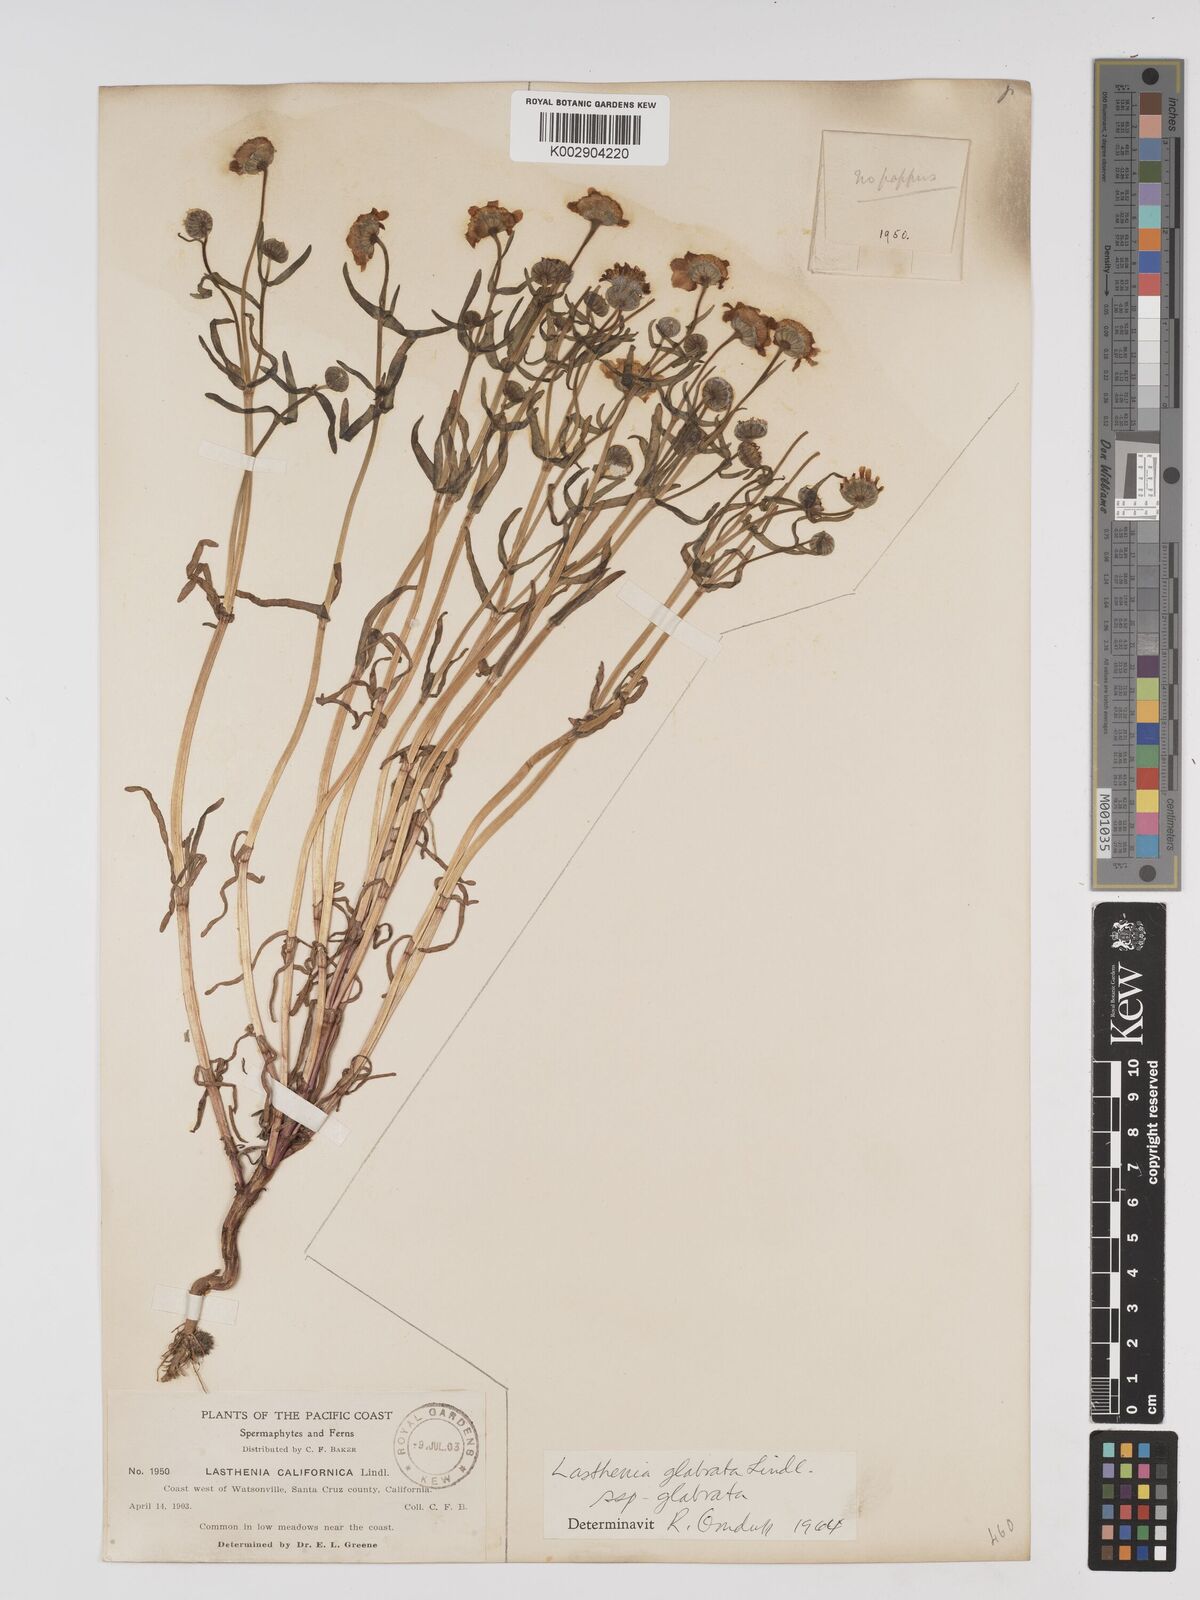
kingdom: Plantae
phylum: Tracheophyta
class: Magnoliopsida
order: Asterales
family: Asteraceae
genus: Lasthenia
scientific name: Lasthenia glabrata
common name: Yellow-ray lasthenia
